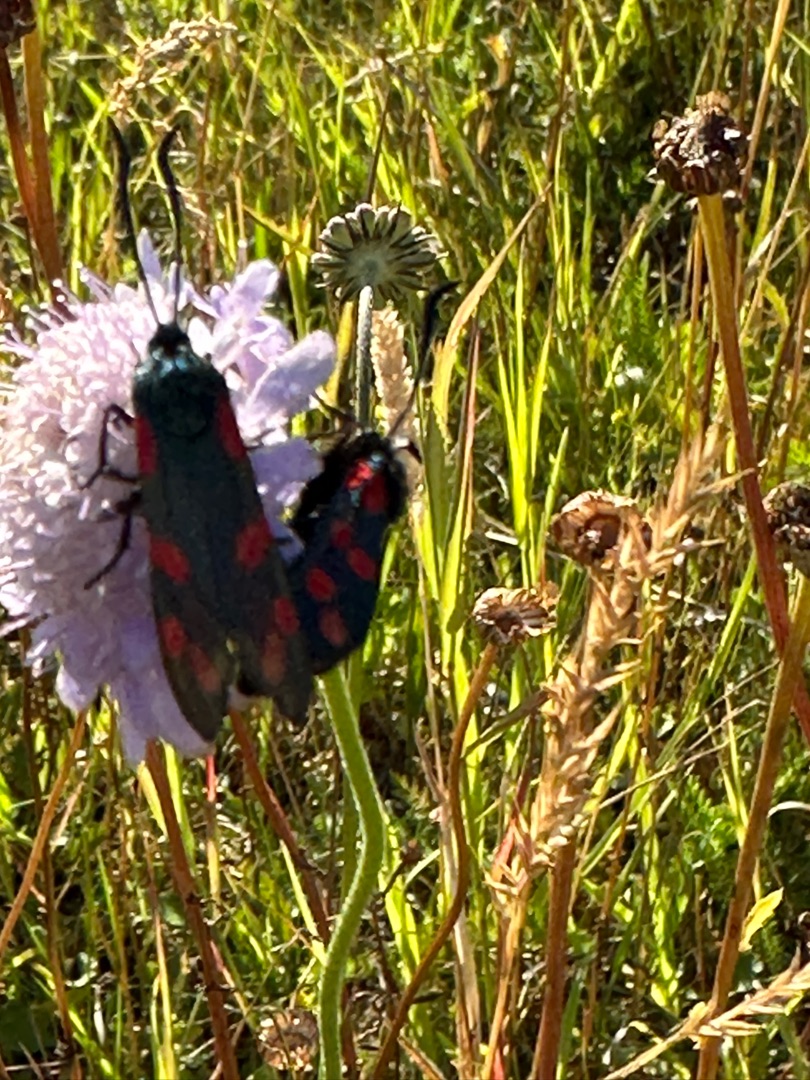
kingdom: Plantae
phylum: Tracheophyta
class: Magnoliopsida
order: Dipsacales
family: Caprifoliaceae
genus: Scabiosa
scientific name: Scabiosa columbaria
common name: Due-skabiose
